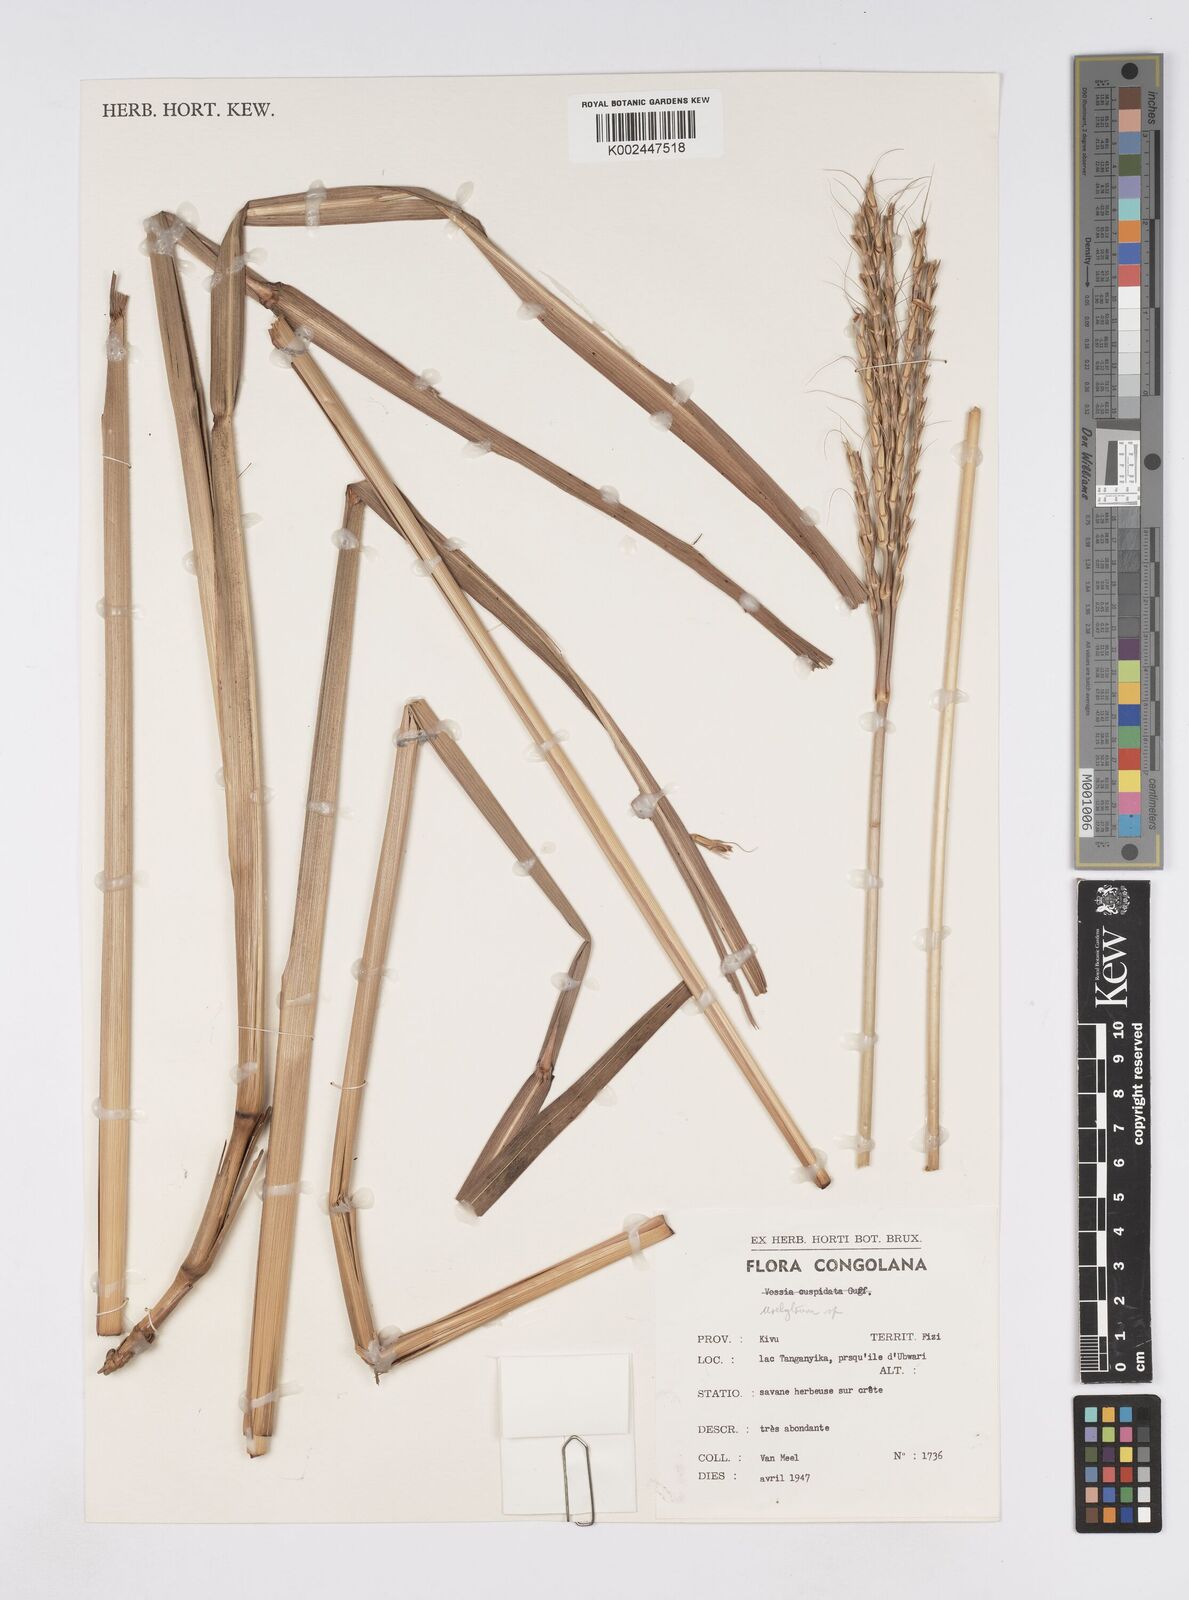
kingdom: Plantae
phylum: Tracheophyta
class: Liliopsida
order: Poales
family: Poaceae
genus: Urelytrum
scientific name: Urelytrum digitatum
